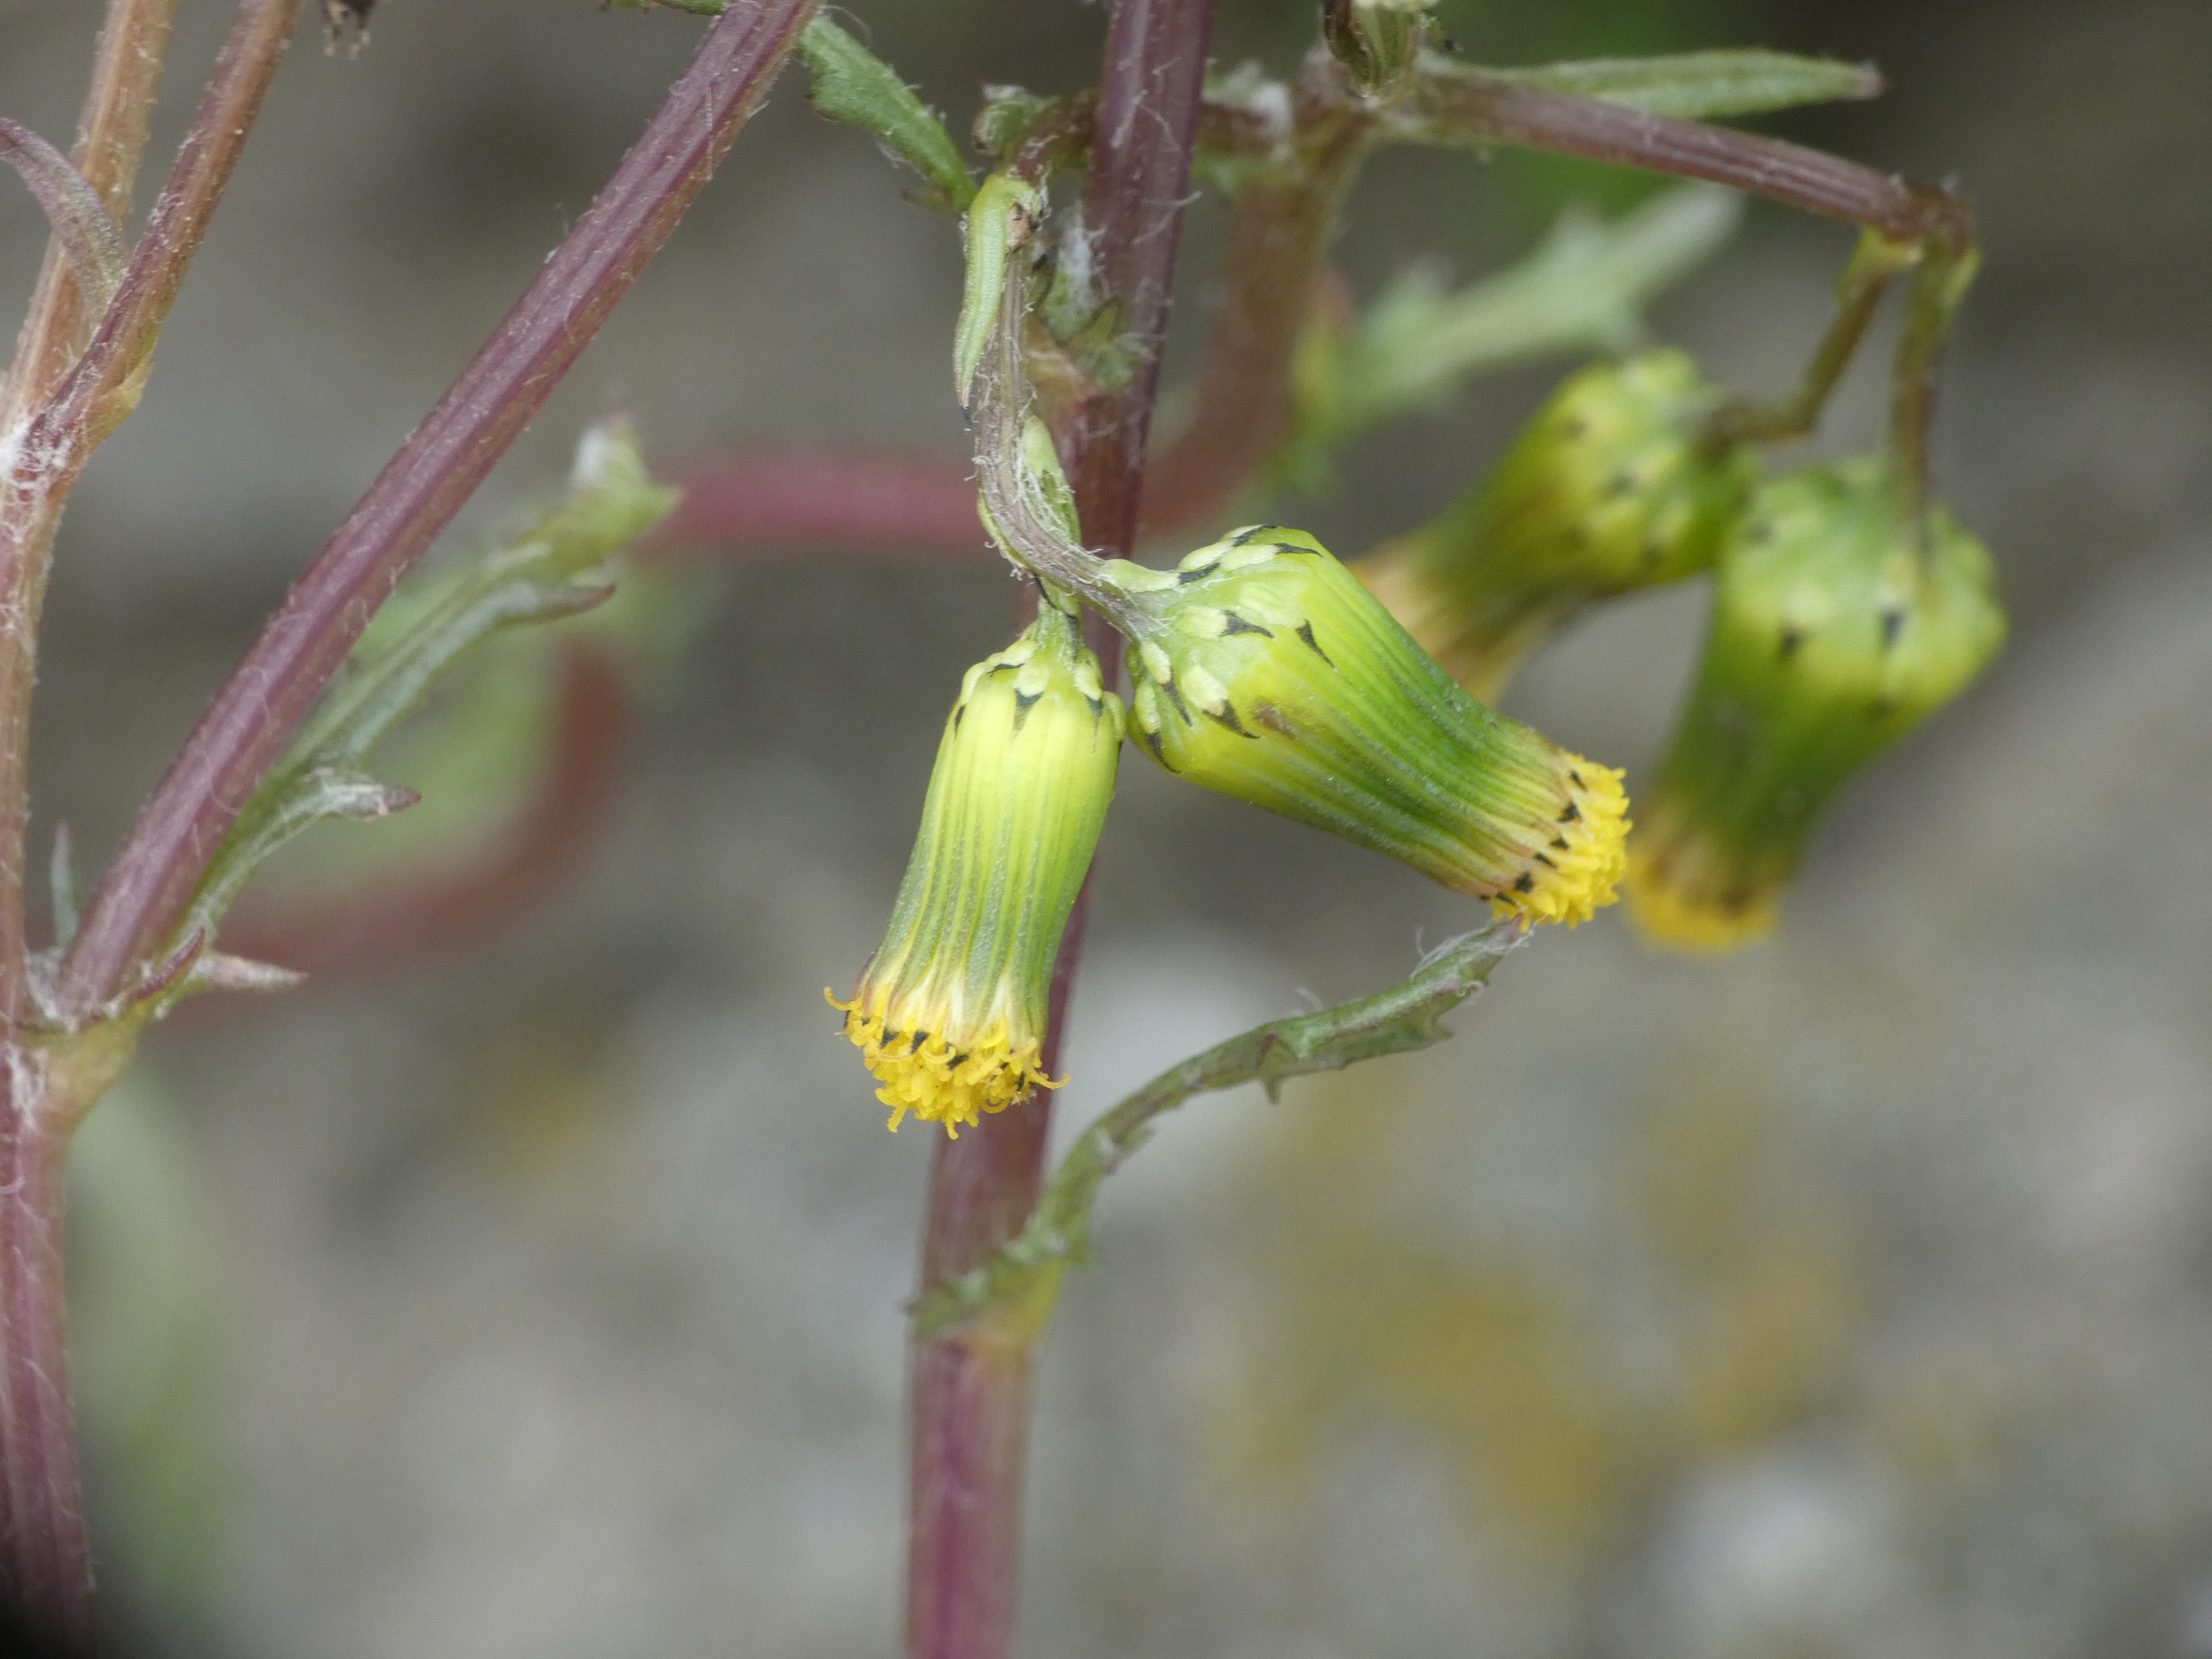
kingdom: Plantae
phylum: Tracheophyta
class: Magnoliopsida
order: Asterales
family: Asteraceae
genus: Senecio
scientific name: Senecio vulgaris
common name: Almindelig brandbæger
